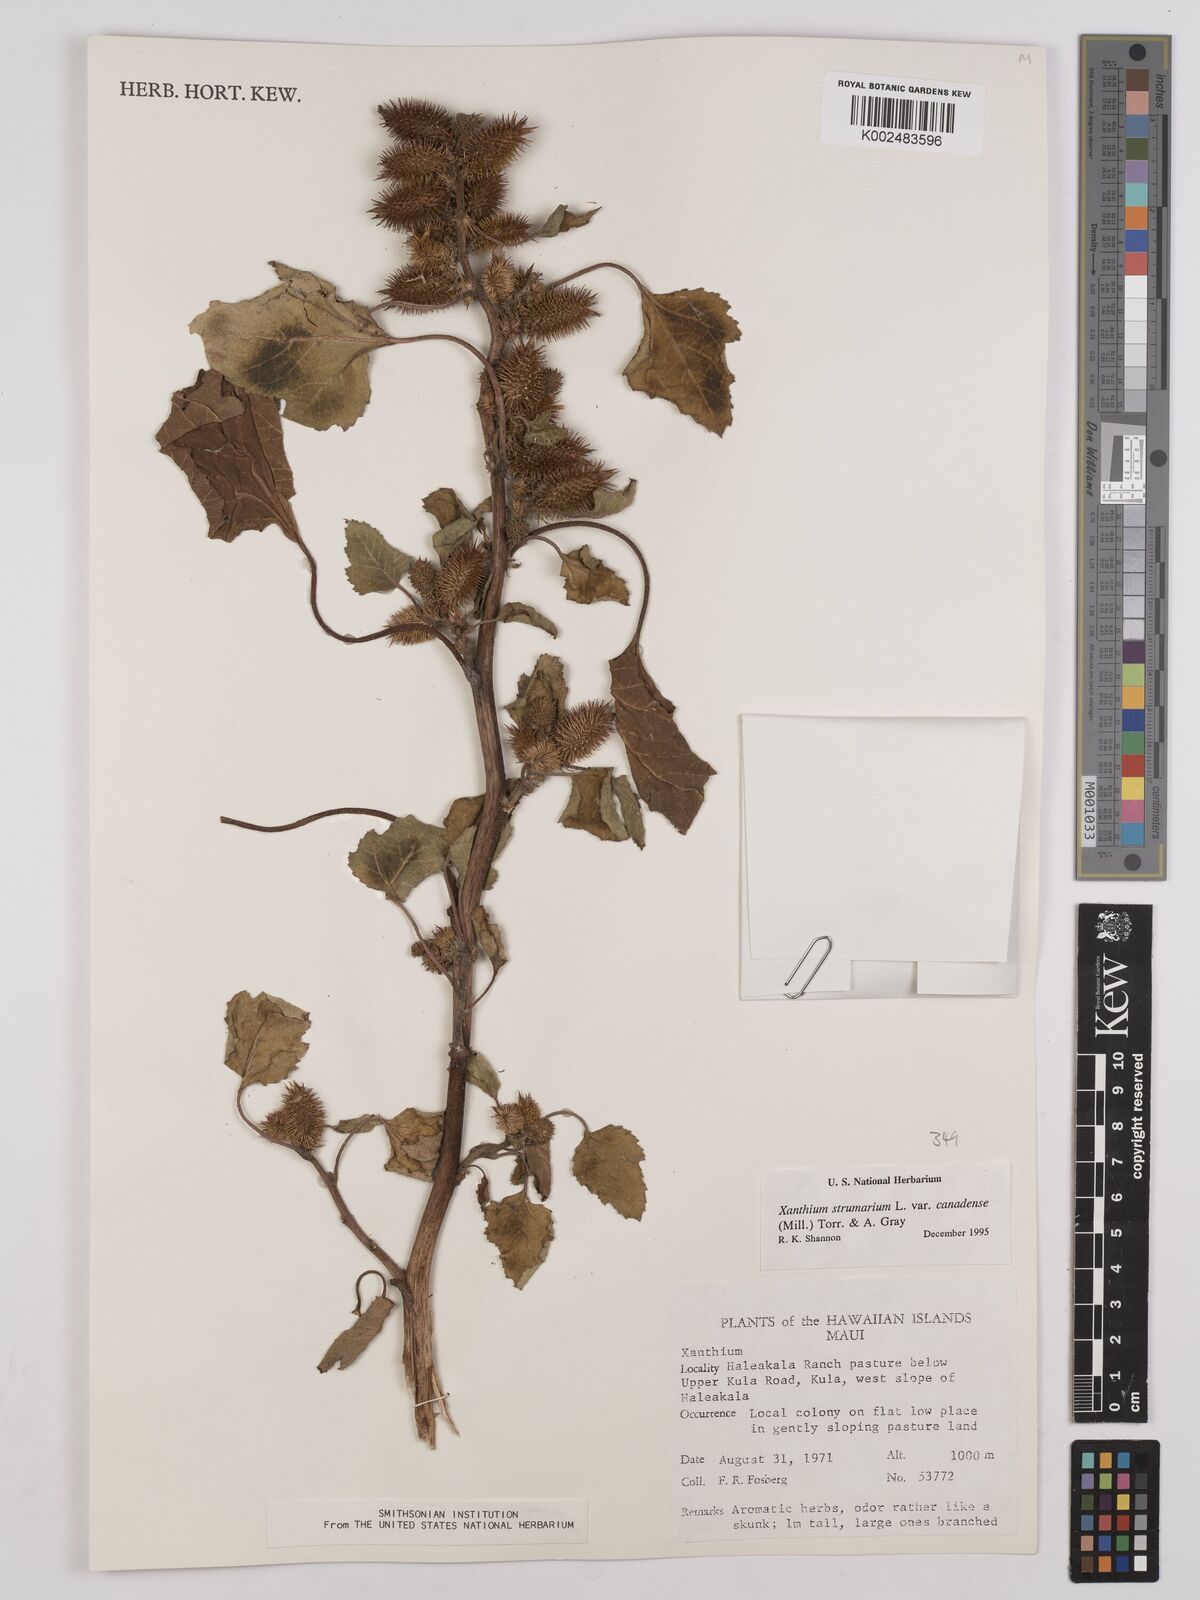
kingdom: Plantae
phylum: Tracheophyta
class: Magnoliopsida
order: Asterales
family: Asteraceae
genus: Xanthium
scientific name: Xanthium strumarium
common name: Rough cocklebur
